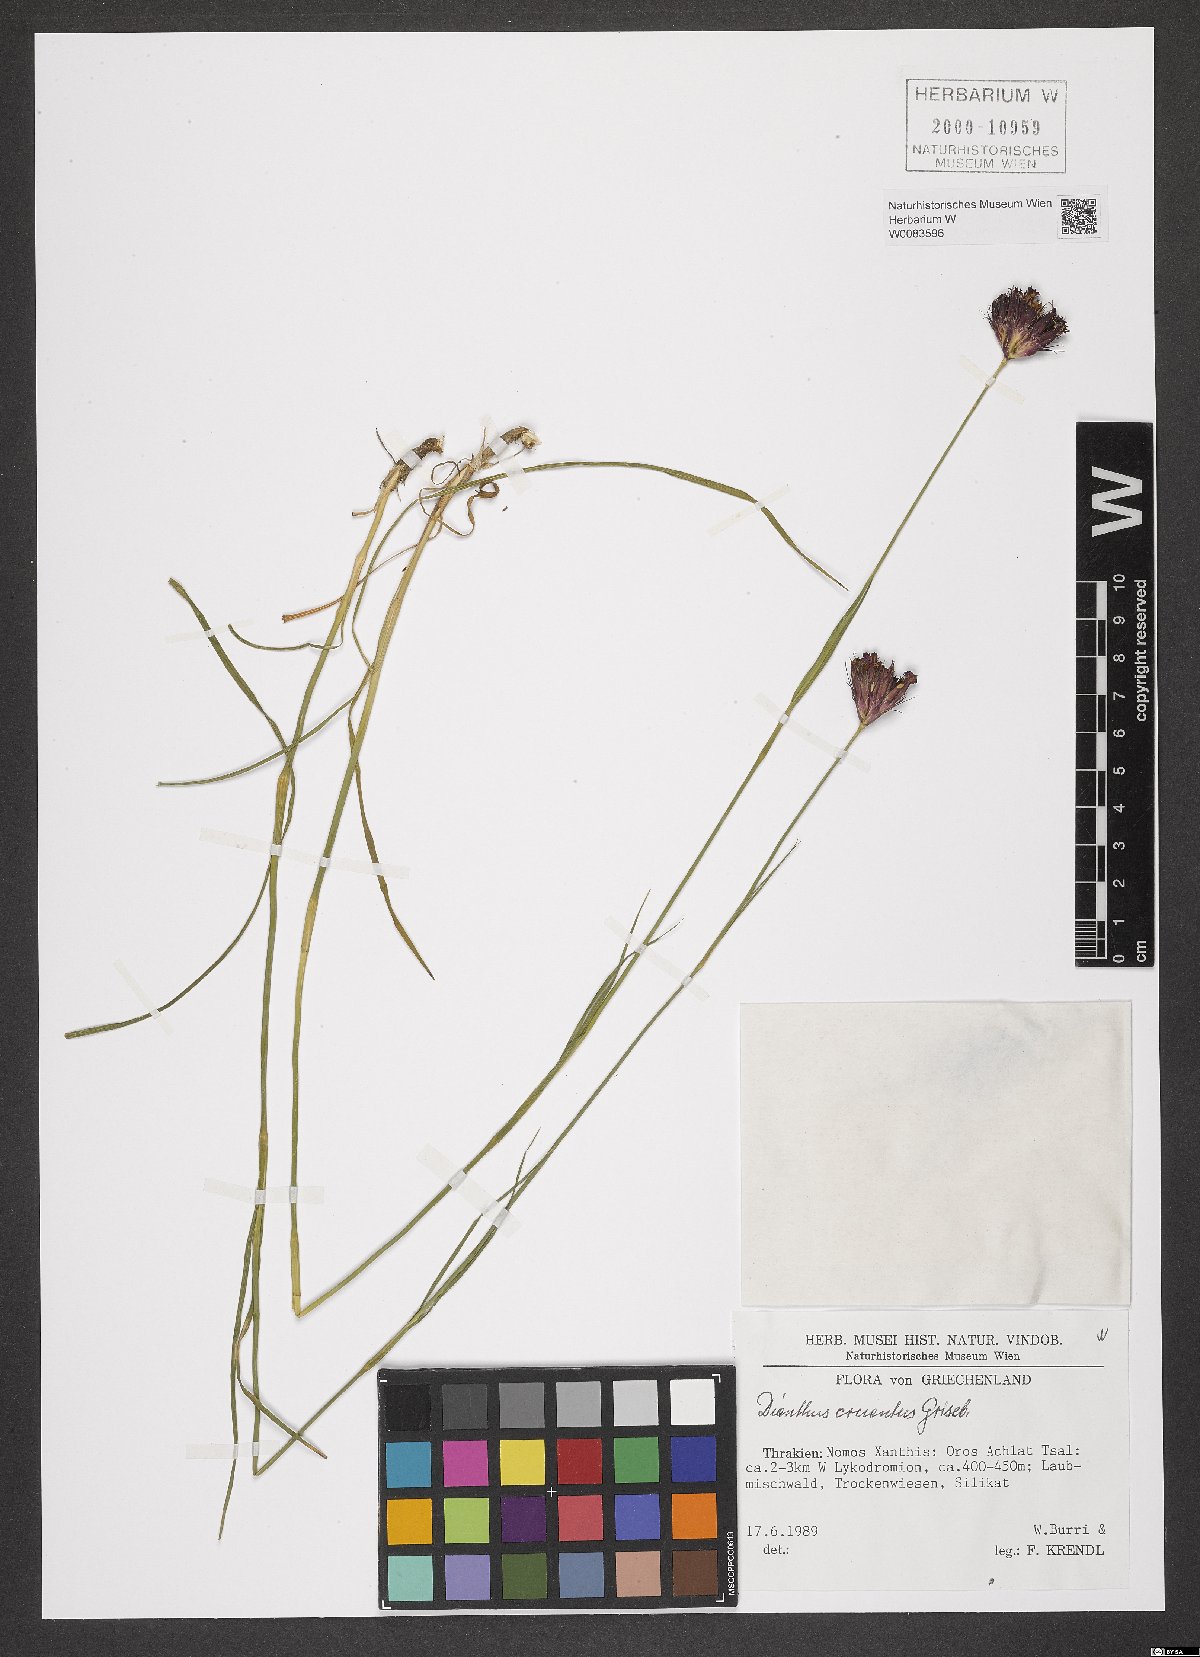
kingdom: Plantae
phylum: Tracheophyta
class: Magnoliopsida
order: Caryophyllales
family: Caryophyllaceae
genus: Dianthus
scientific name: Dianthus cruentus
